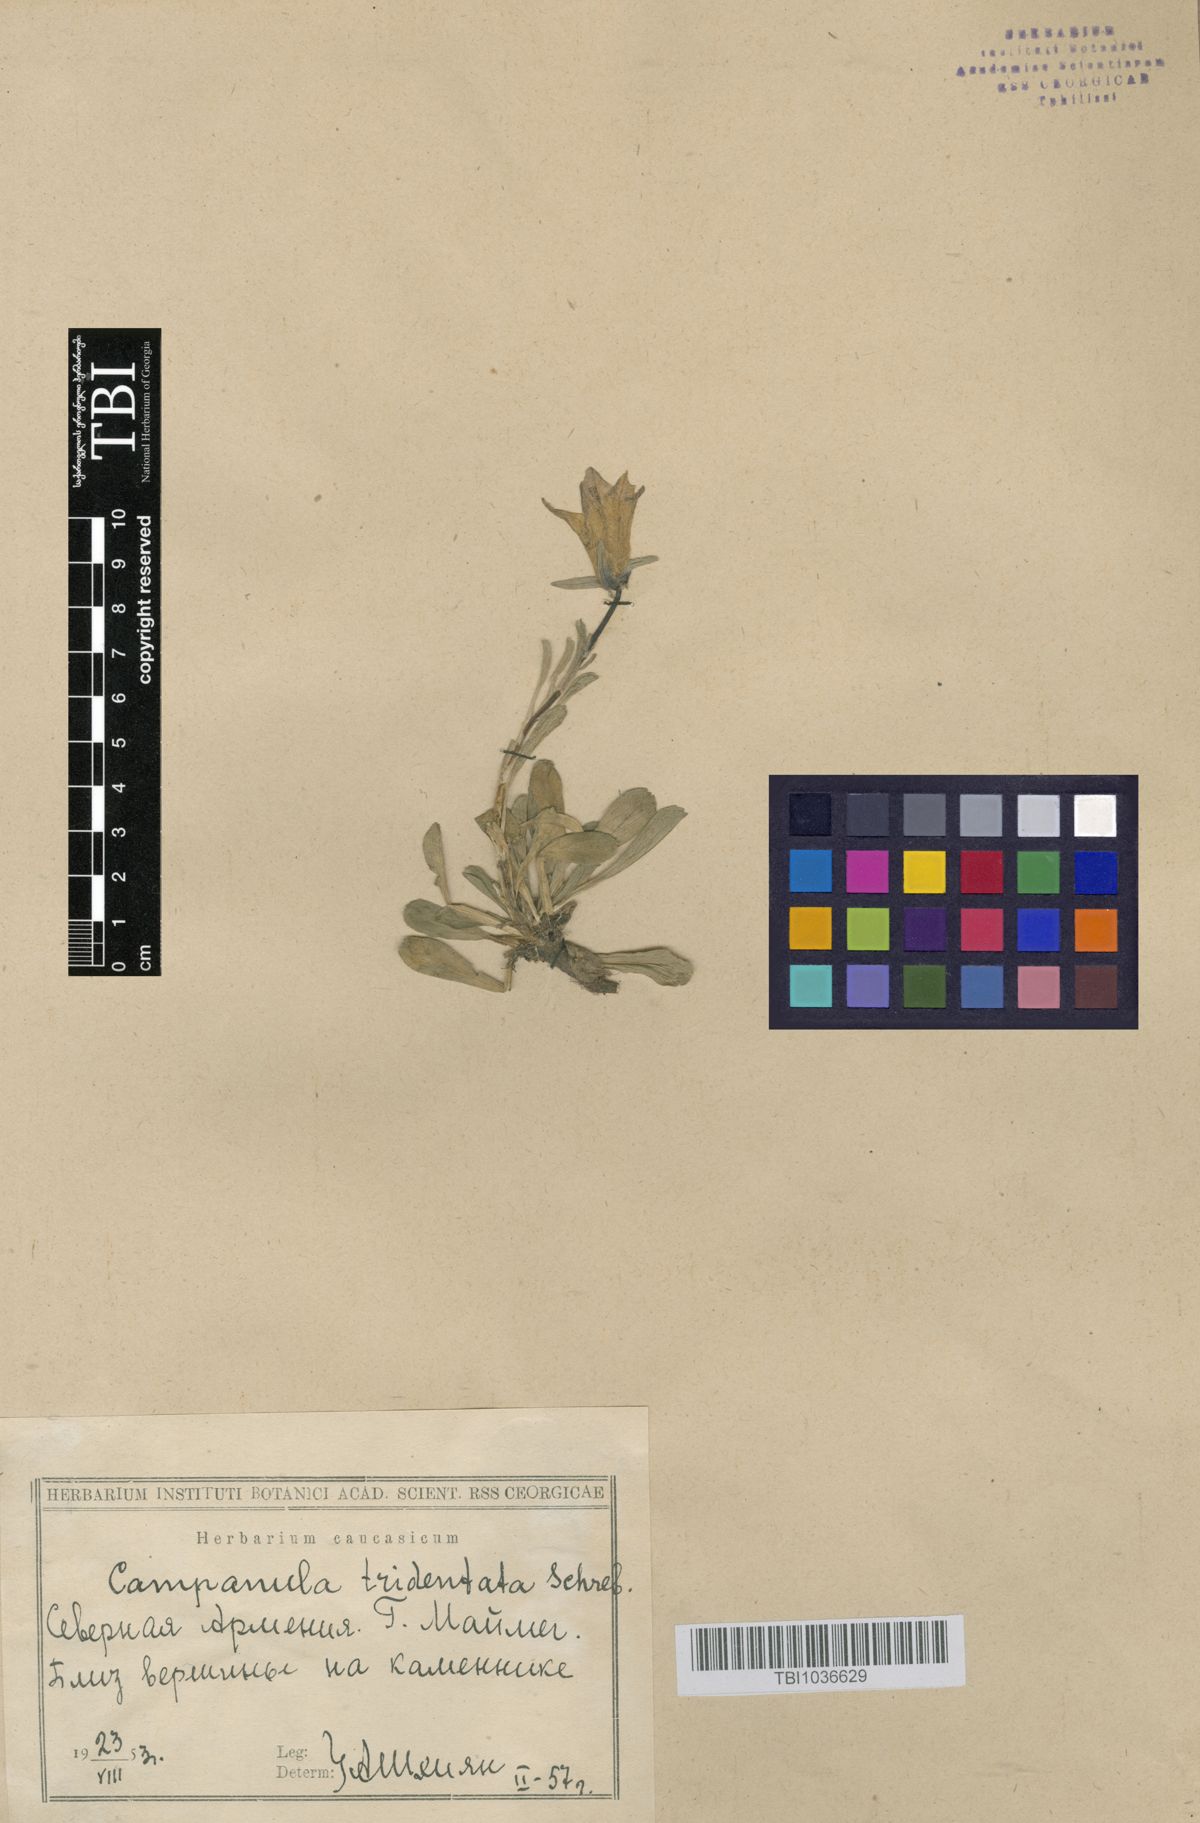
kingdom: Plantae
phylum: Tracheophyta
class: Magnoliopsida
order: Asterales
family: Campanulaceae
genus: Campanula
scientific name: Campanula tridentata
